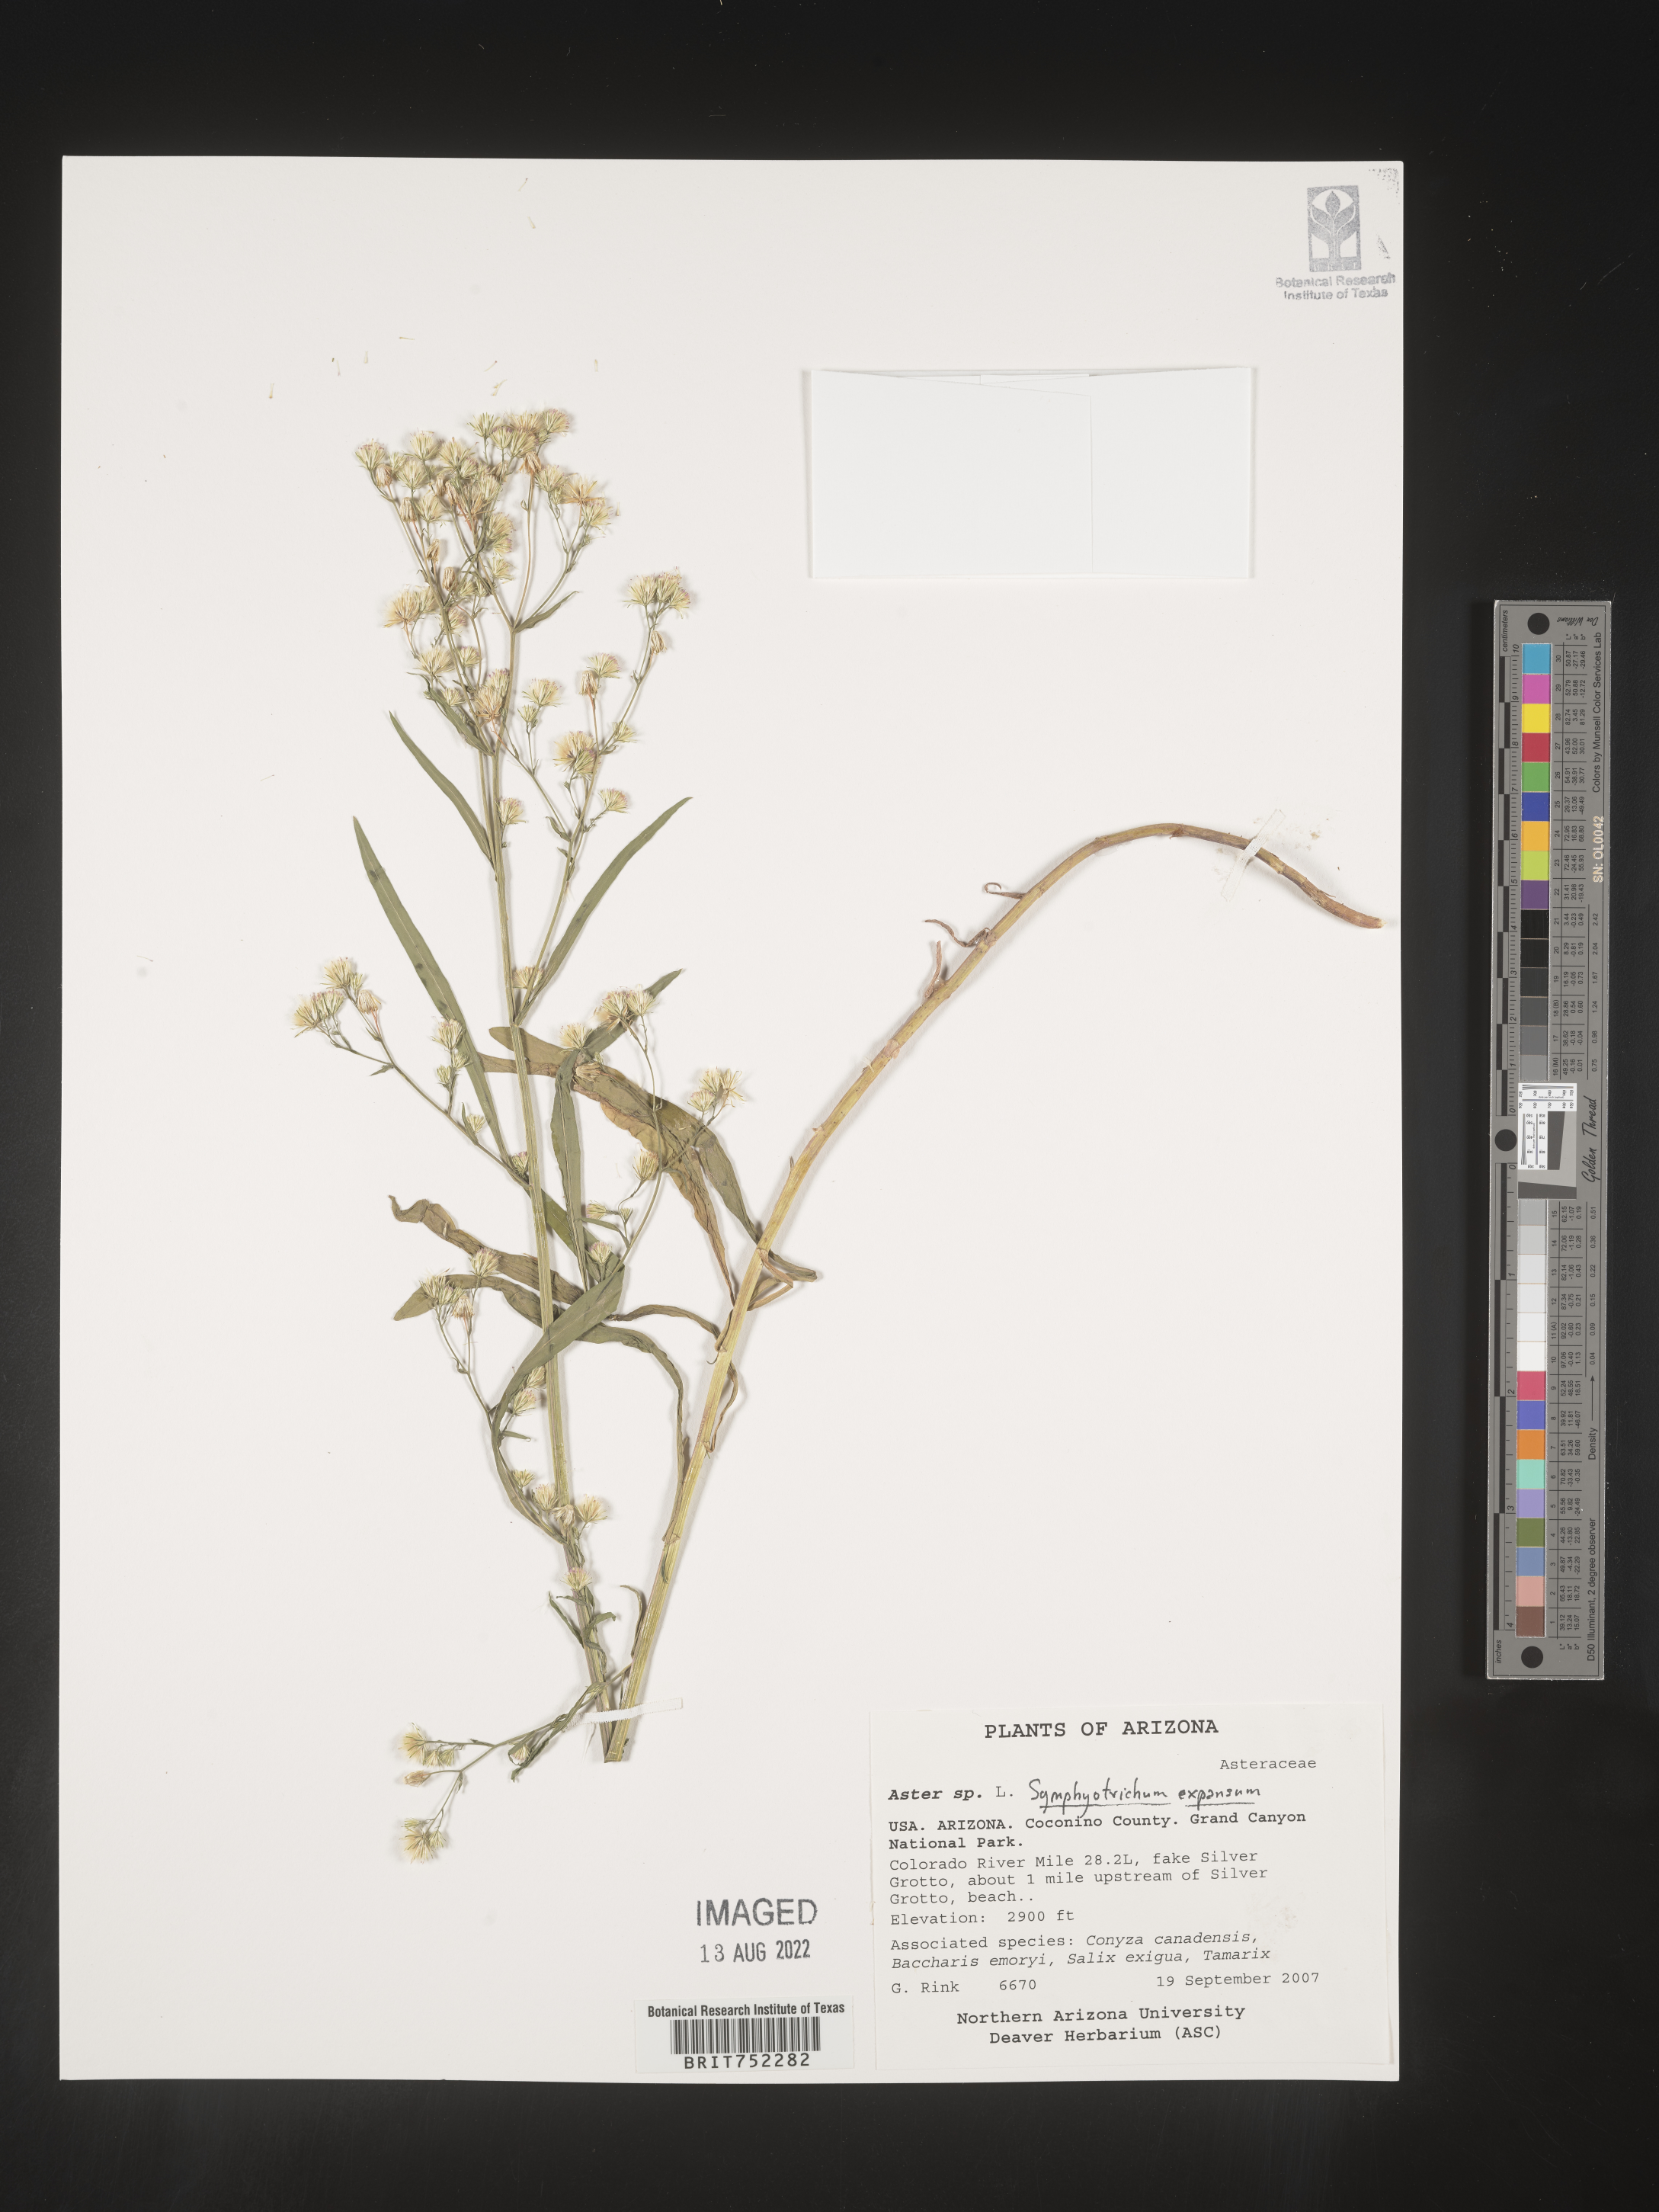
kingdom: Plantae
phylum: Tracheophyta
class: Magnoliopsida
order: Asterales
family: Asteraceae
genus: Symphyotrichum
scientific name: Symphyotrichum expansum
